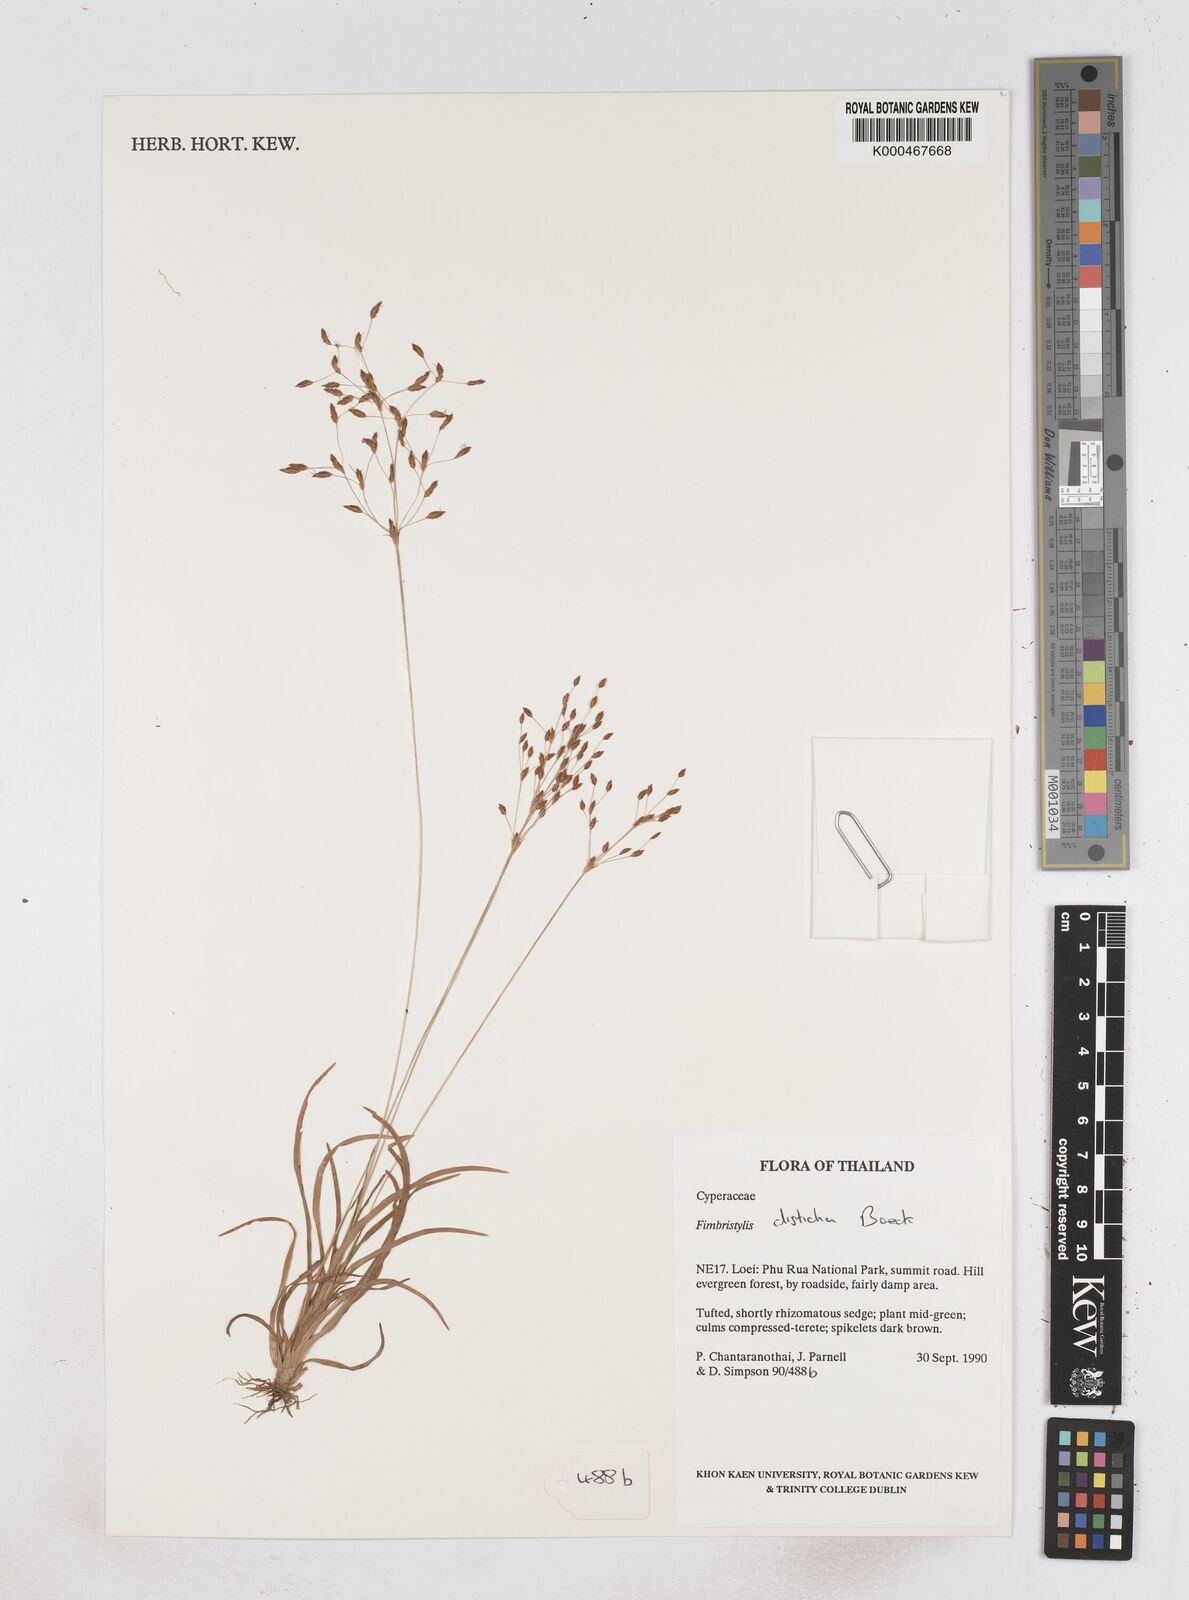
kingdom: Plantae
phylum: Tracheophyta
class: Liliopsida
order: Poales
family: Cyperaceae
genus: Fimbristylis
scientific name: Fimbristylis disticha
